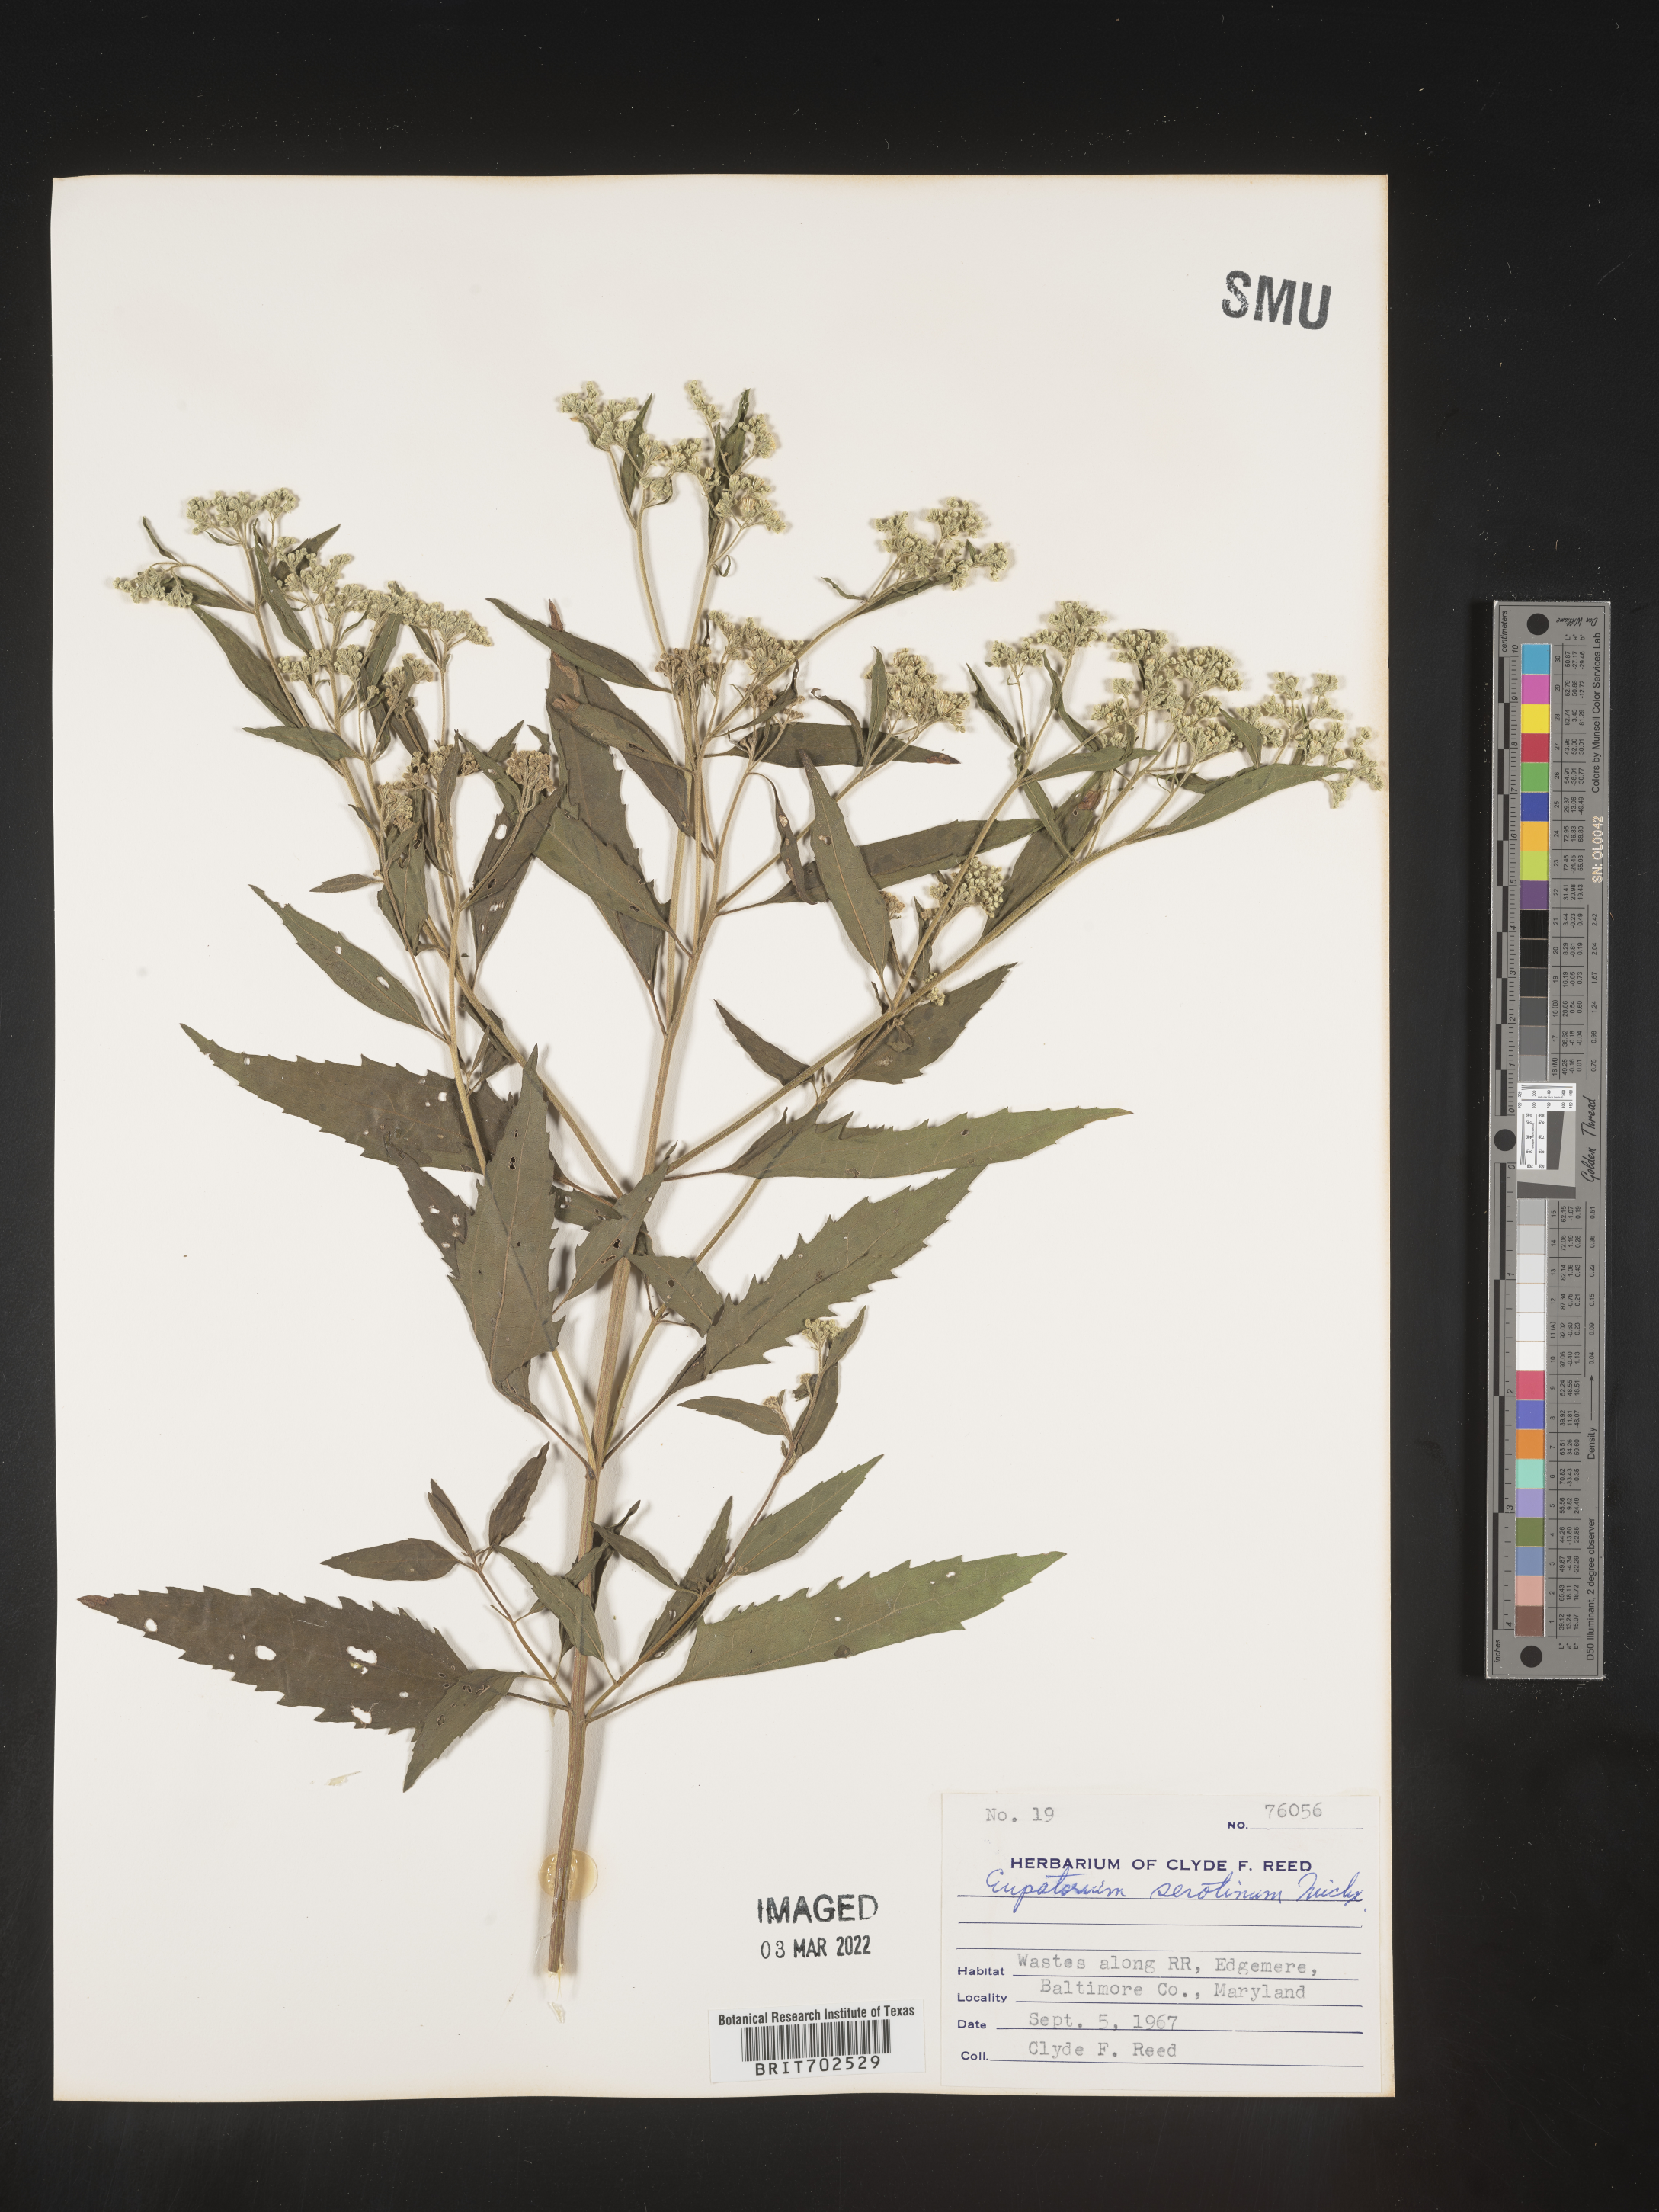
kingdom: Plantae
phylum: Tracheophyta
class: Magnoliopsida
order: Asterales
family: Asteraceae
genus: Eupatorium
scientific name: Eupatorium serotinum
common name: Late boneset
